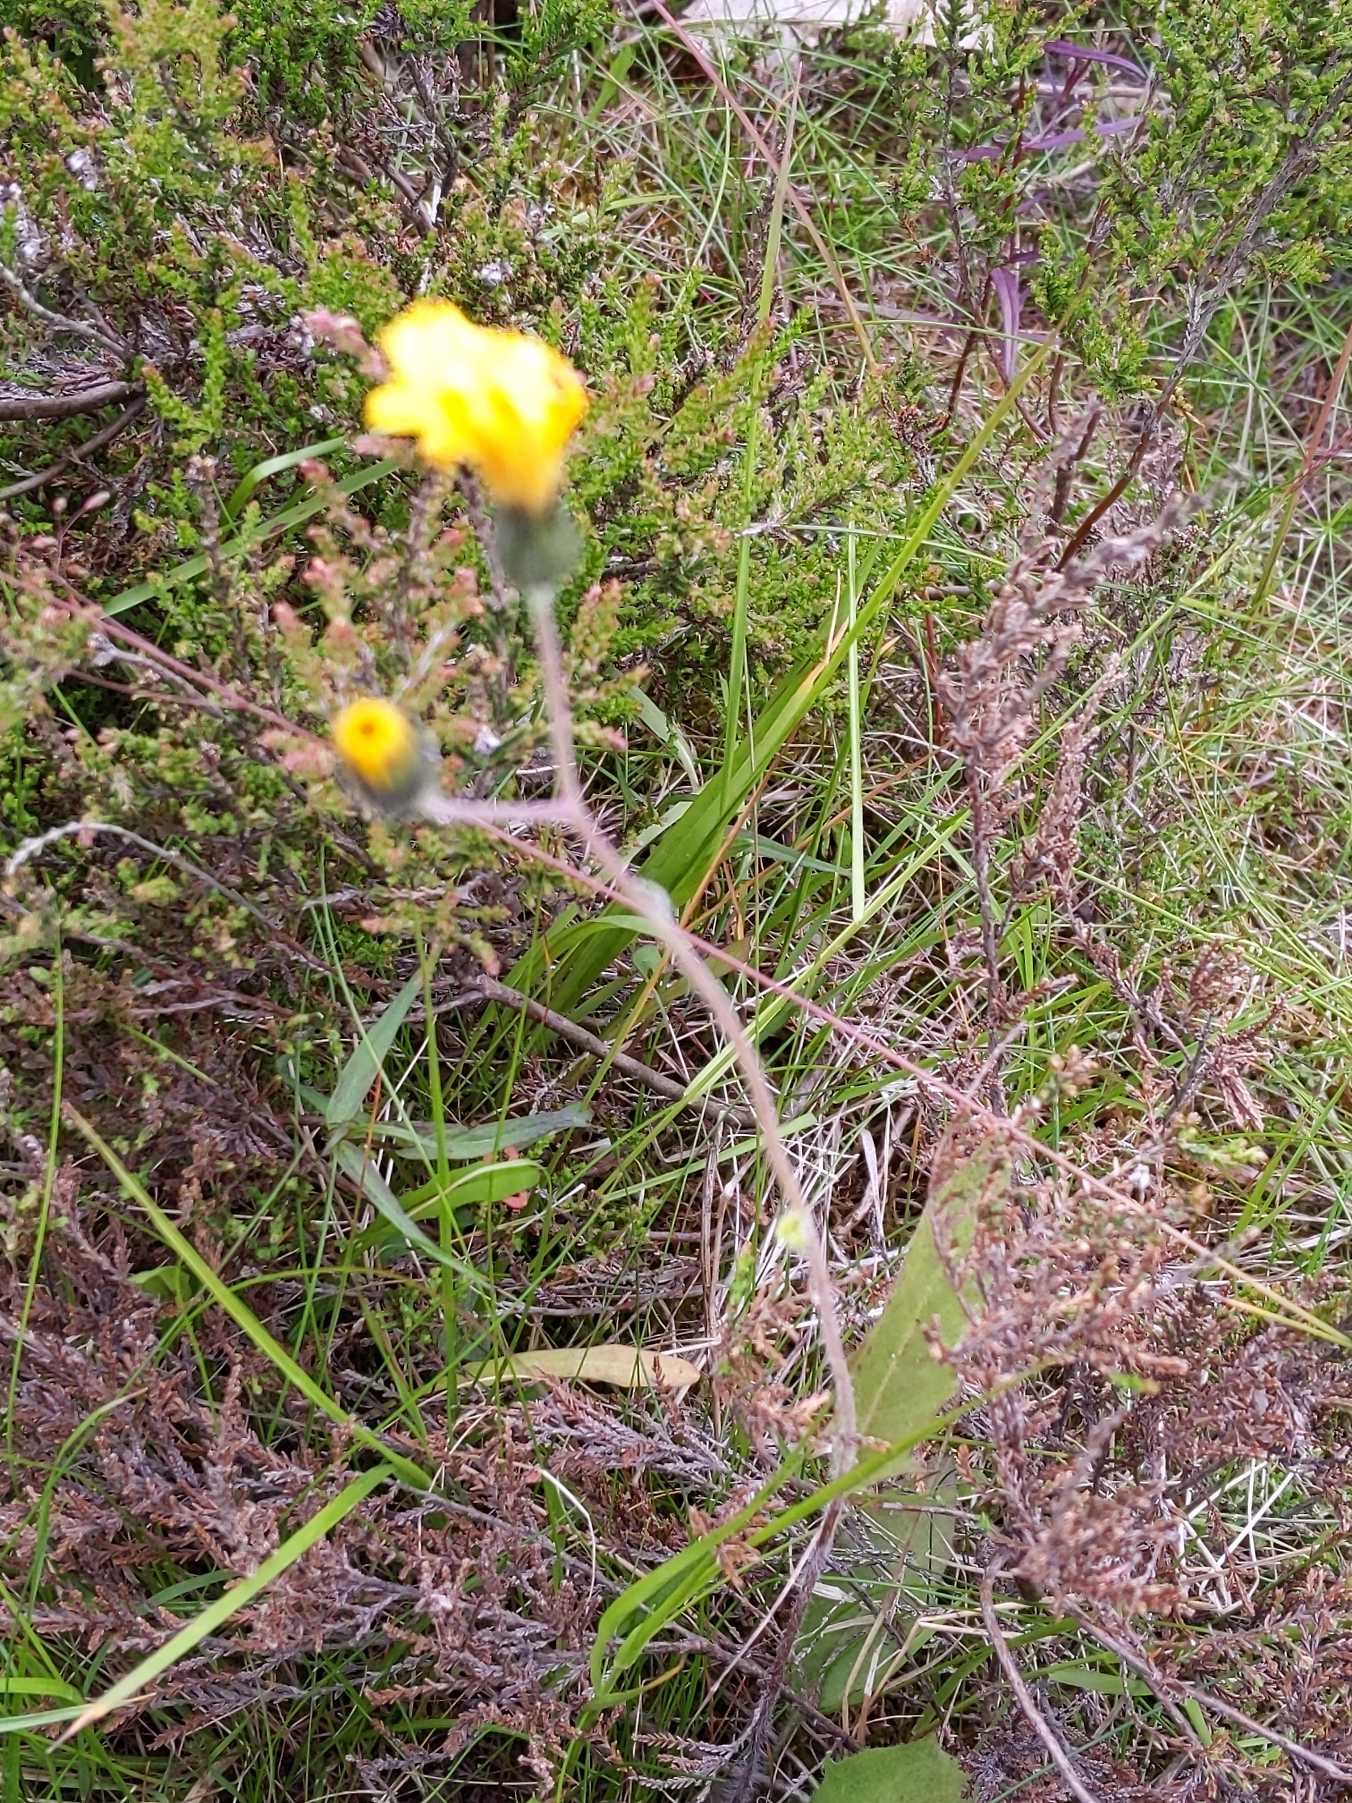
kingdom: Plantae
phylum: Tracheophyta
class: Magnoliopsida
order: Asterales
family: Asteraceae
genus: Hieracium
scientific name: Hieracium
